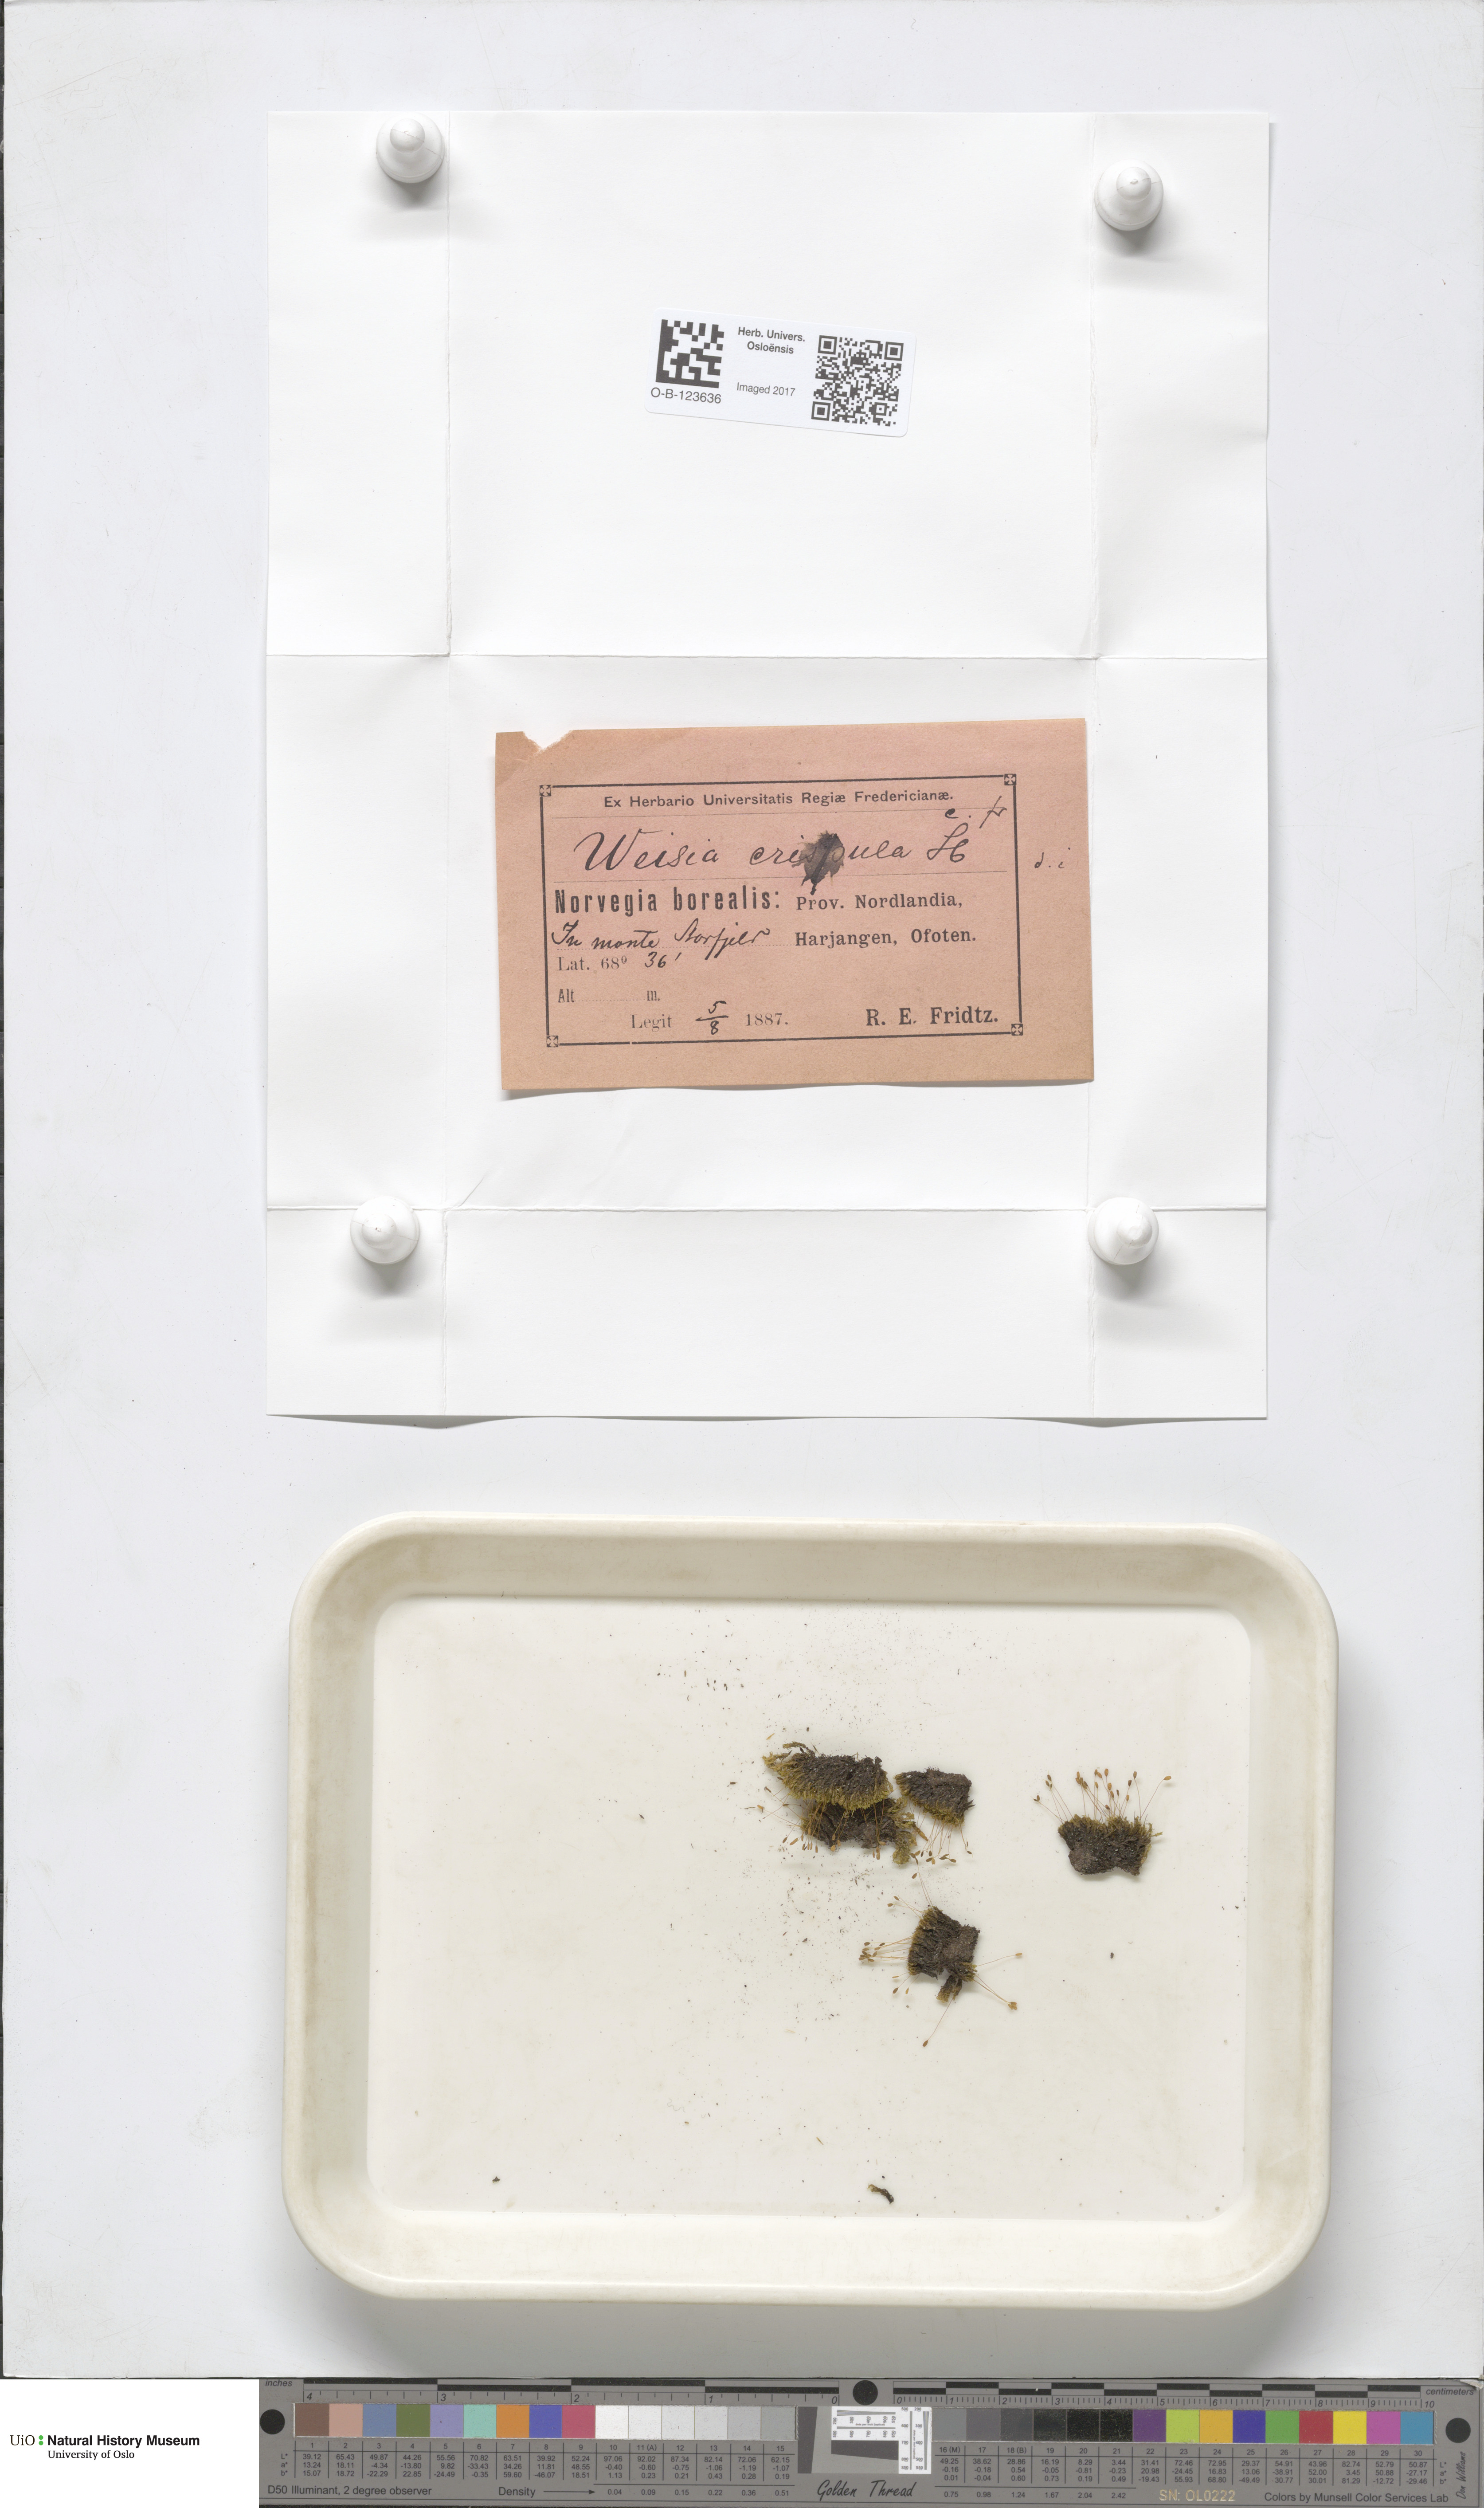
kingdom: Plantae
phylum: Bryophyta
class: Bryopsida
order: Scouleriales
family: Hymenolomataceae
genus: Hymenoloma
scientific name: Hymenoloma crispulum
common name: Mountain pincushion
